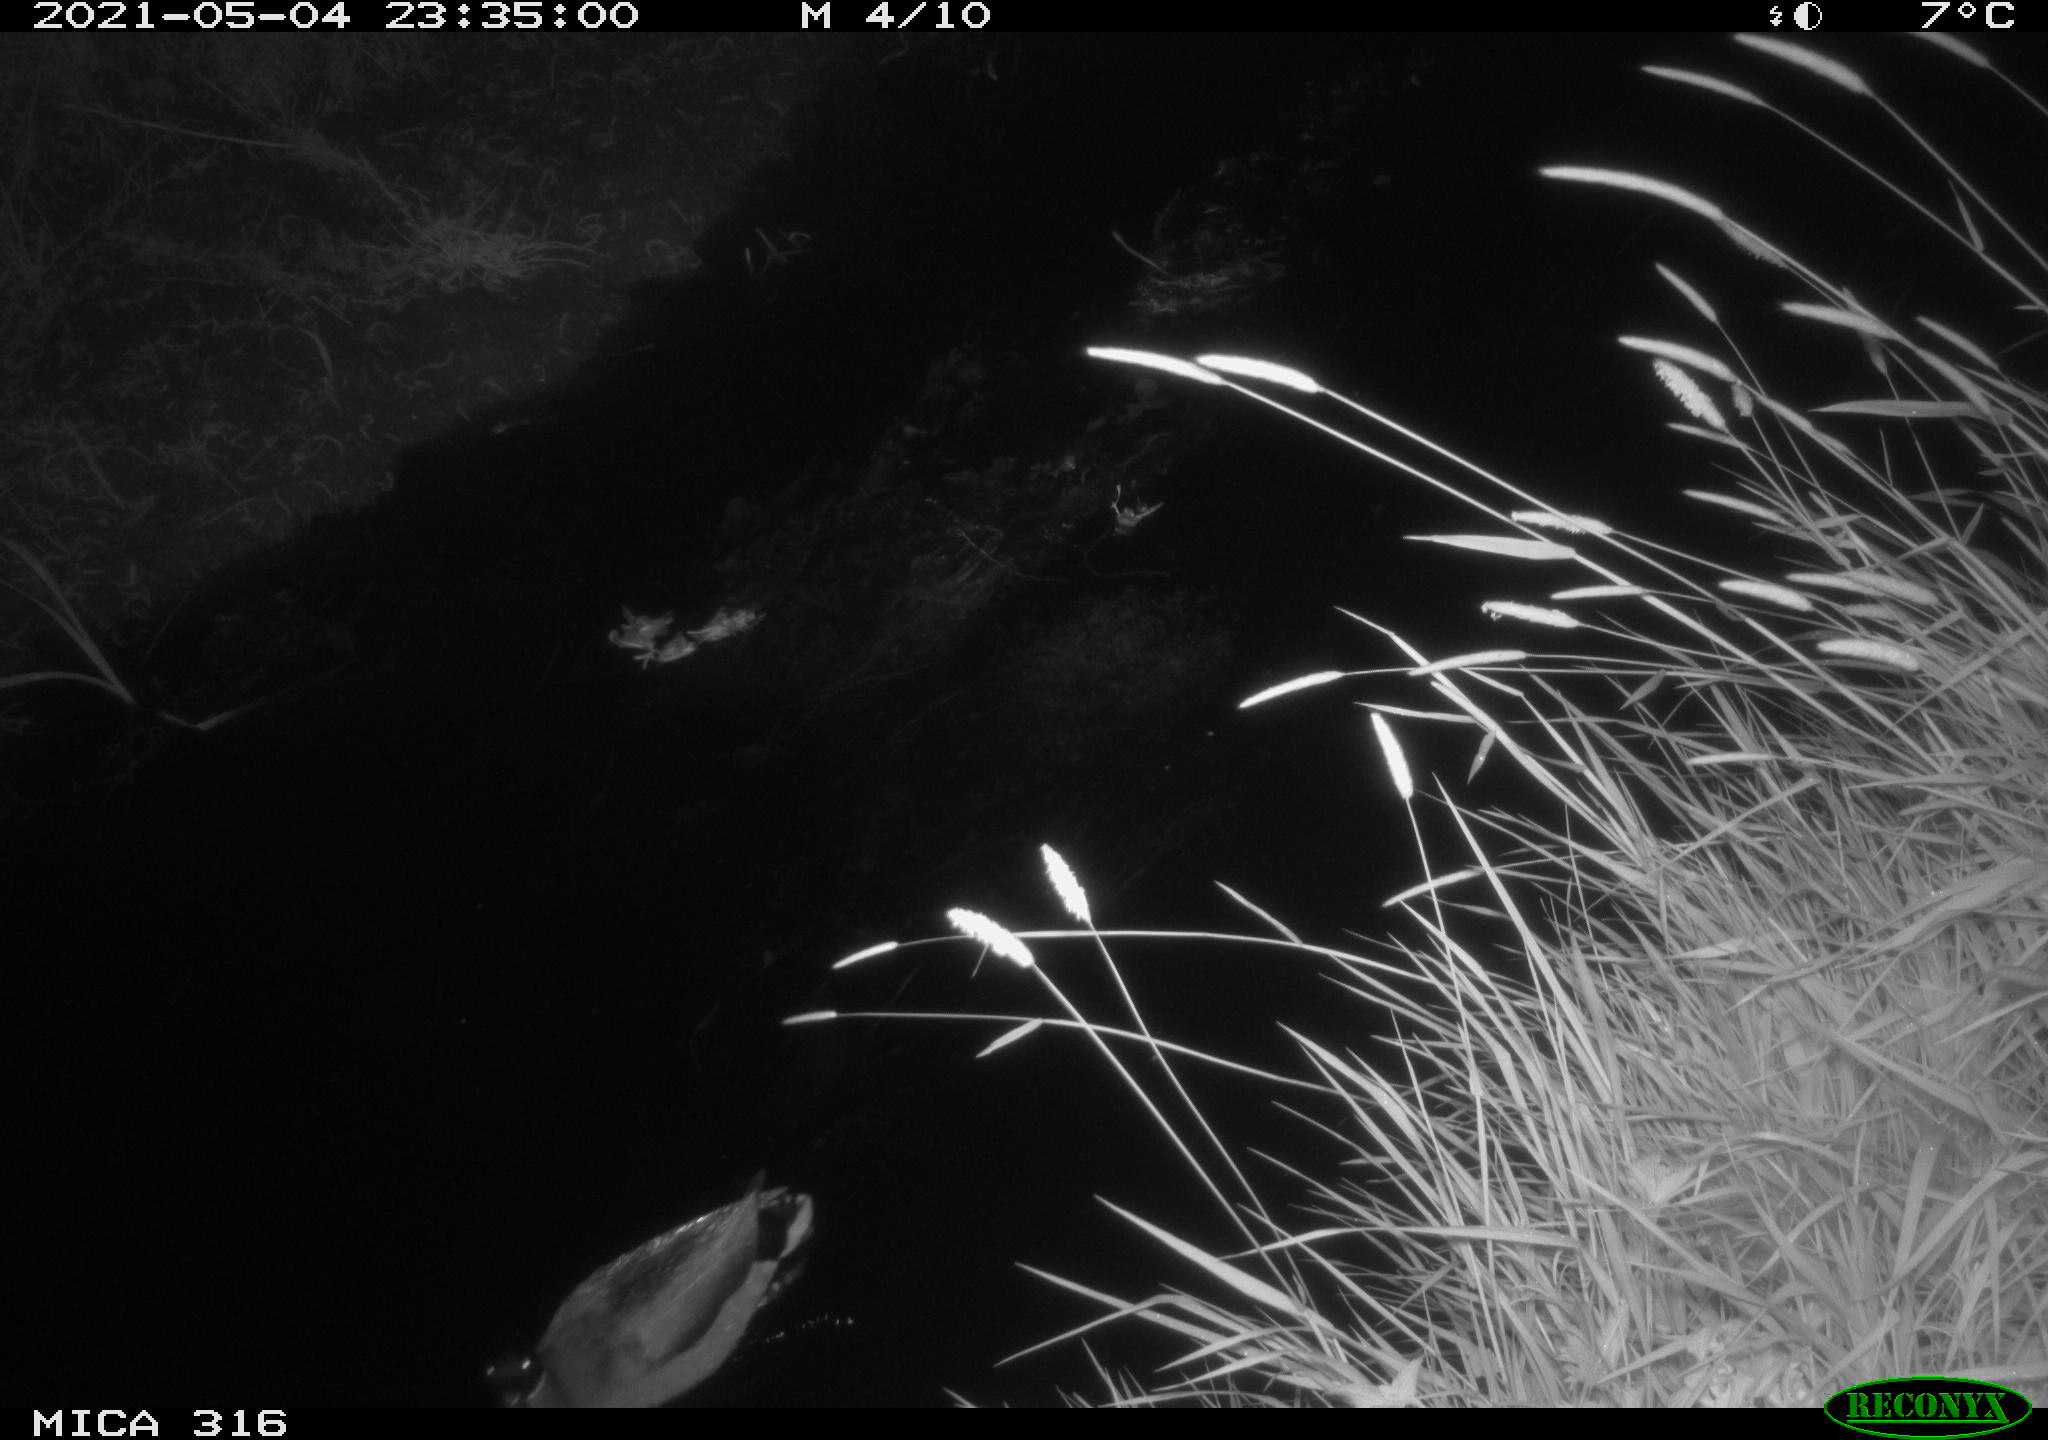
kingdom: Animalia
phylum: Chordata
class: Aves
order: Anseriformes
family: Anatidae
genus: Anas
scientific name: Anas platyrhynchos
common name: Mallard
